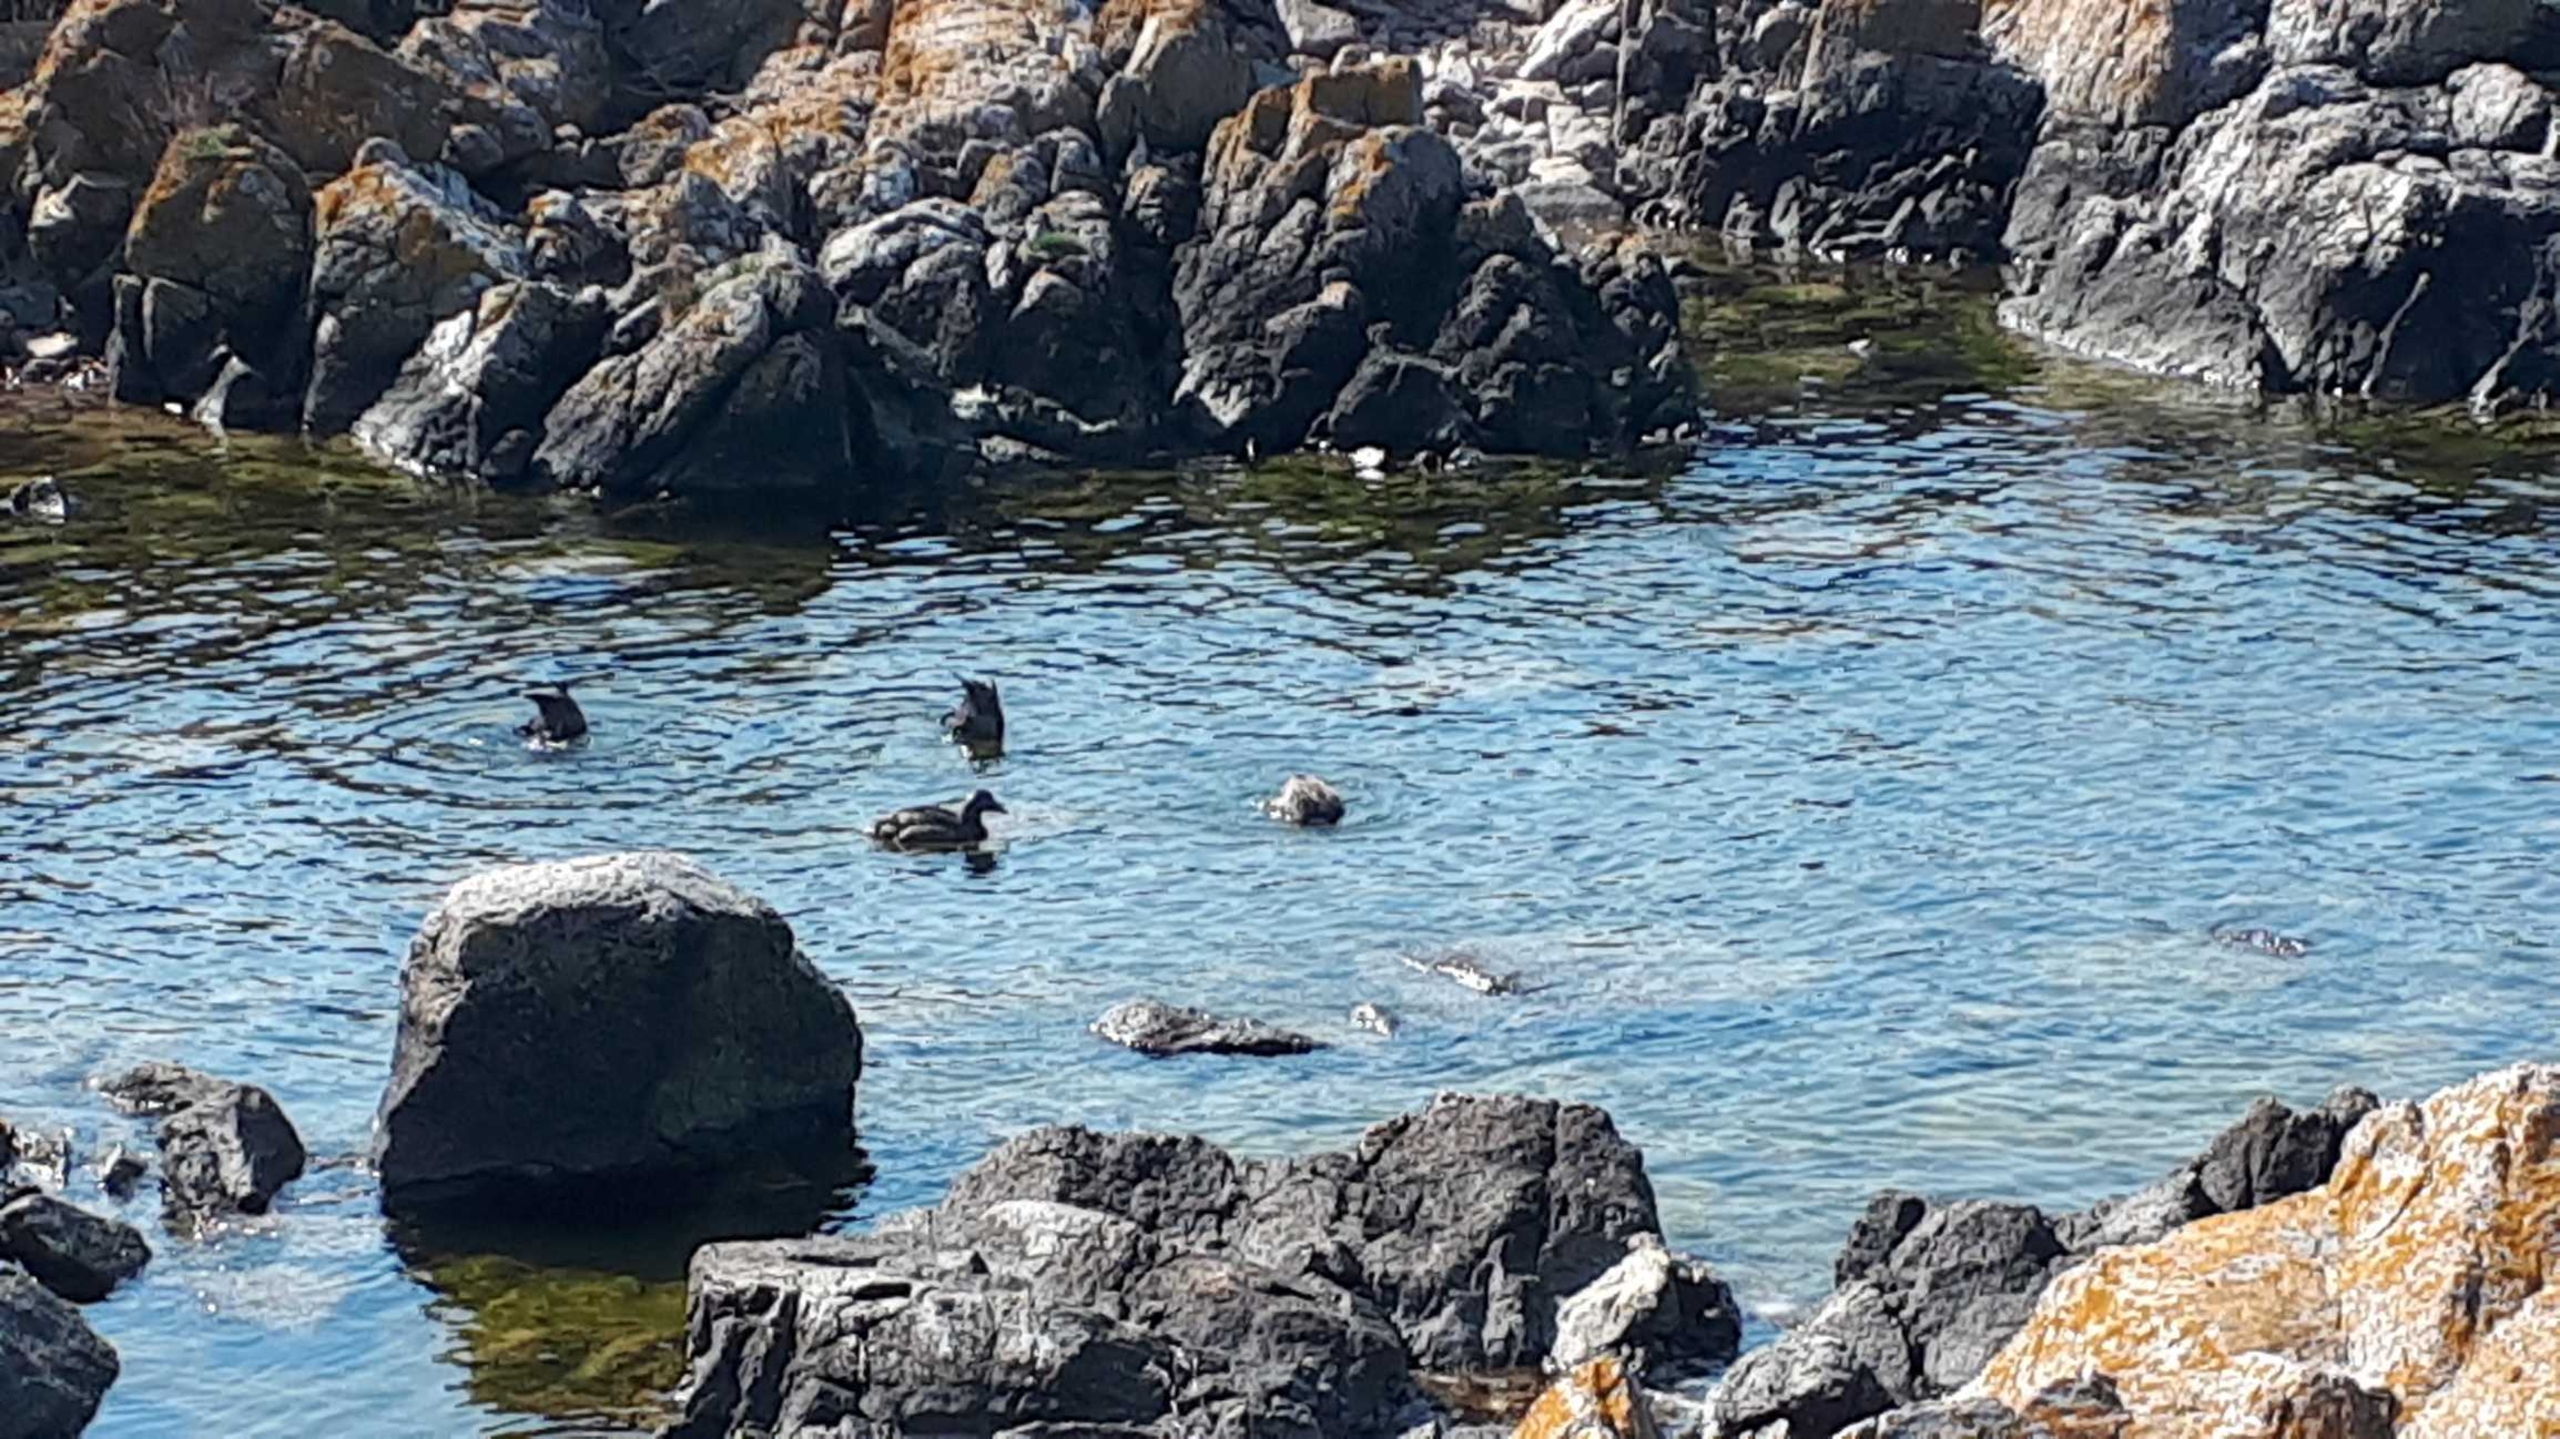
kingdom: Animalia
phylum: Chordata
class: Aves
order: Anseriformes
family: Anatidae
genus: Somateria
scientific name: Somateria mollissima
